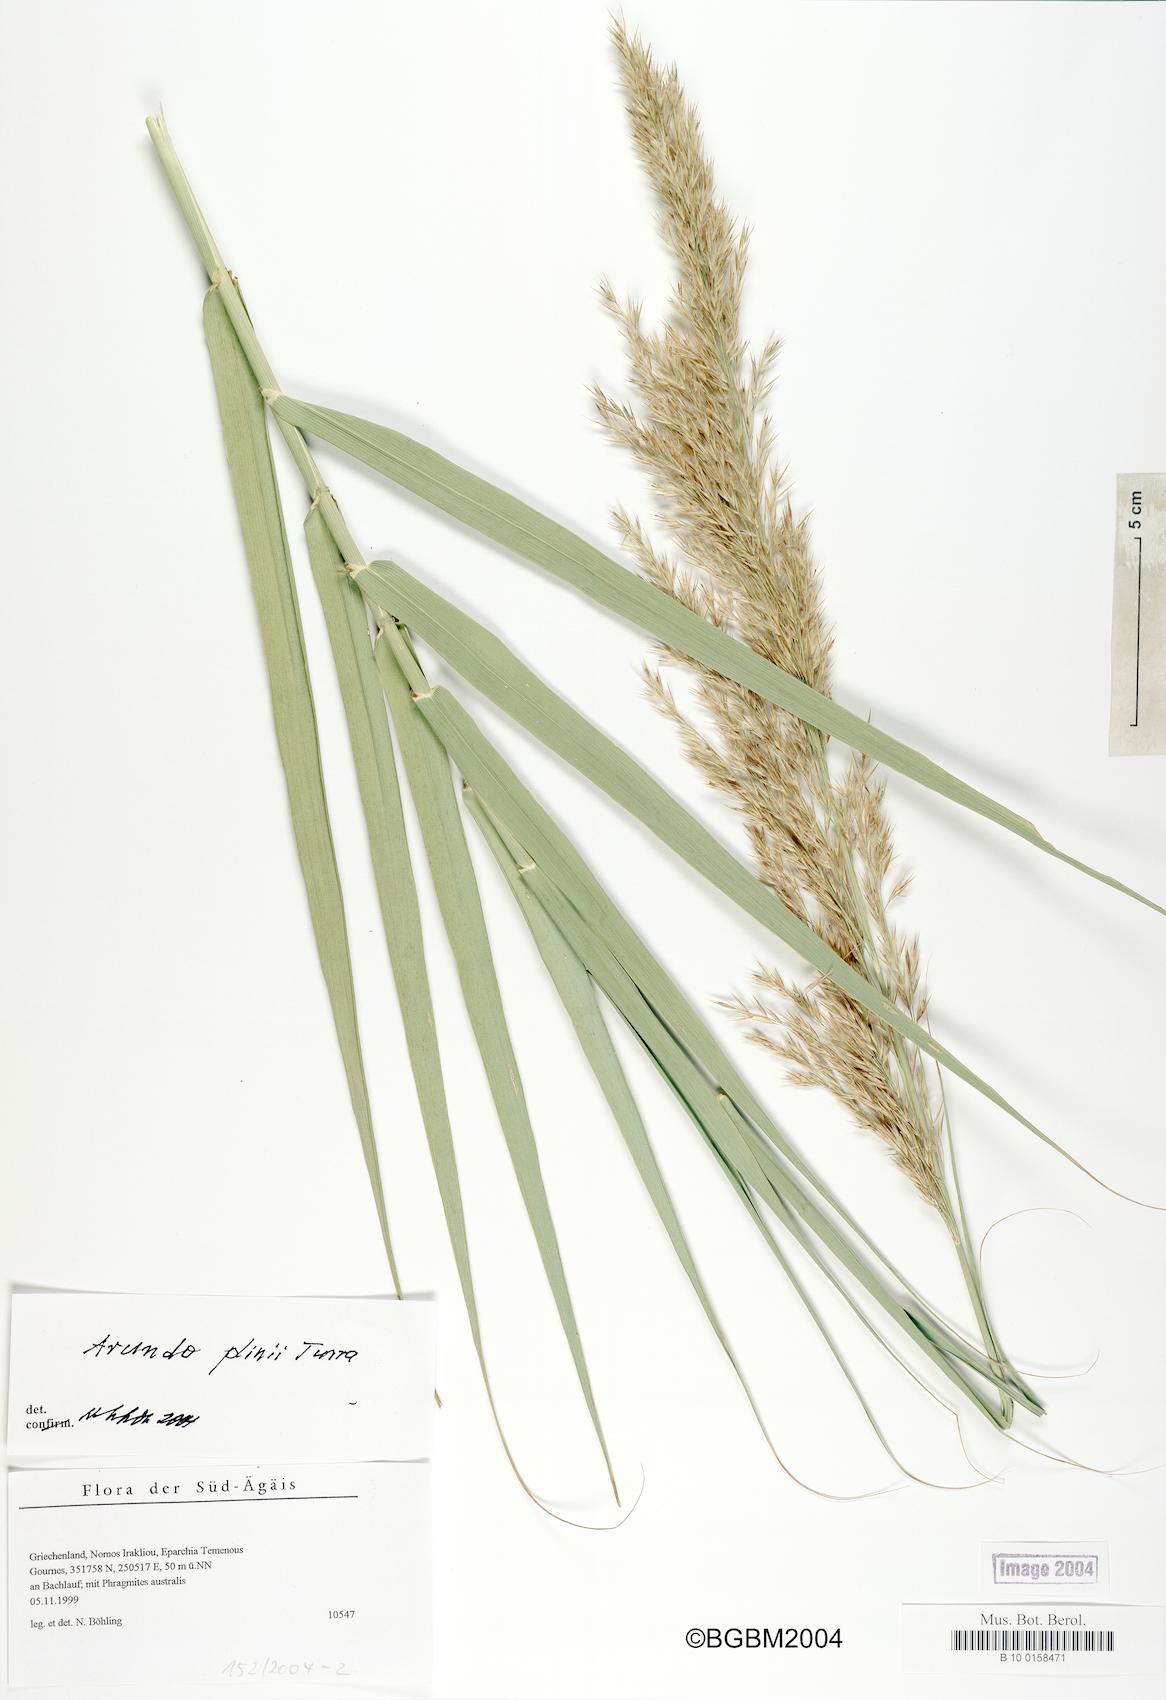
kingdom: Plantae
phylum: Tracheophyta
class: Liliopsida
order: Poales
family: Poaceae
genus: Arundo
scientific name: Arundo plinii
